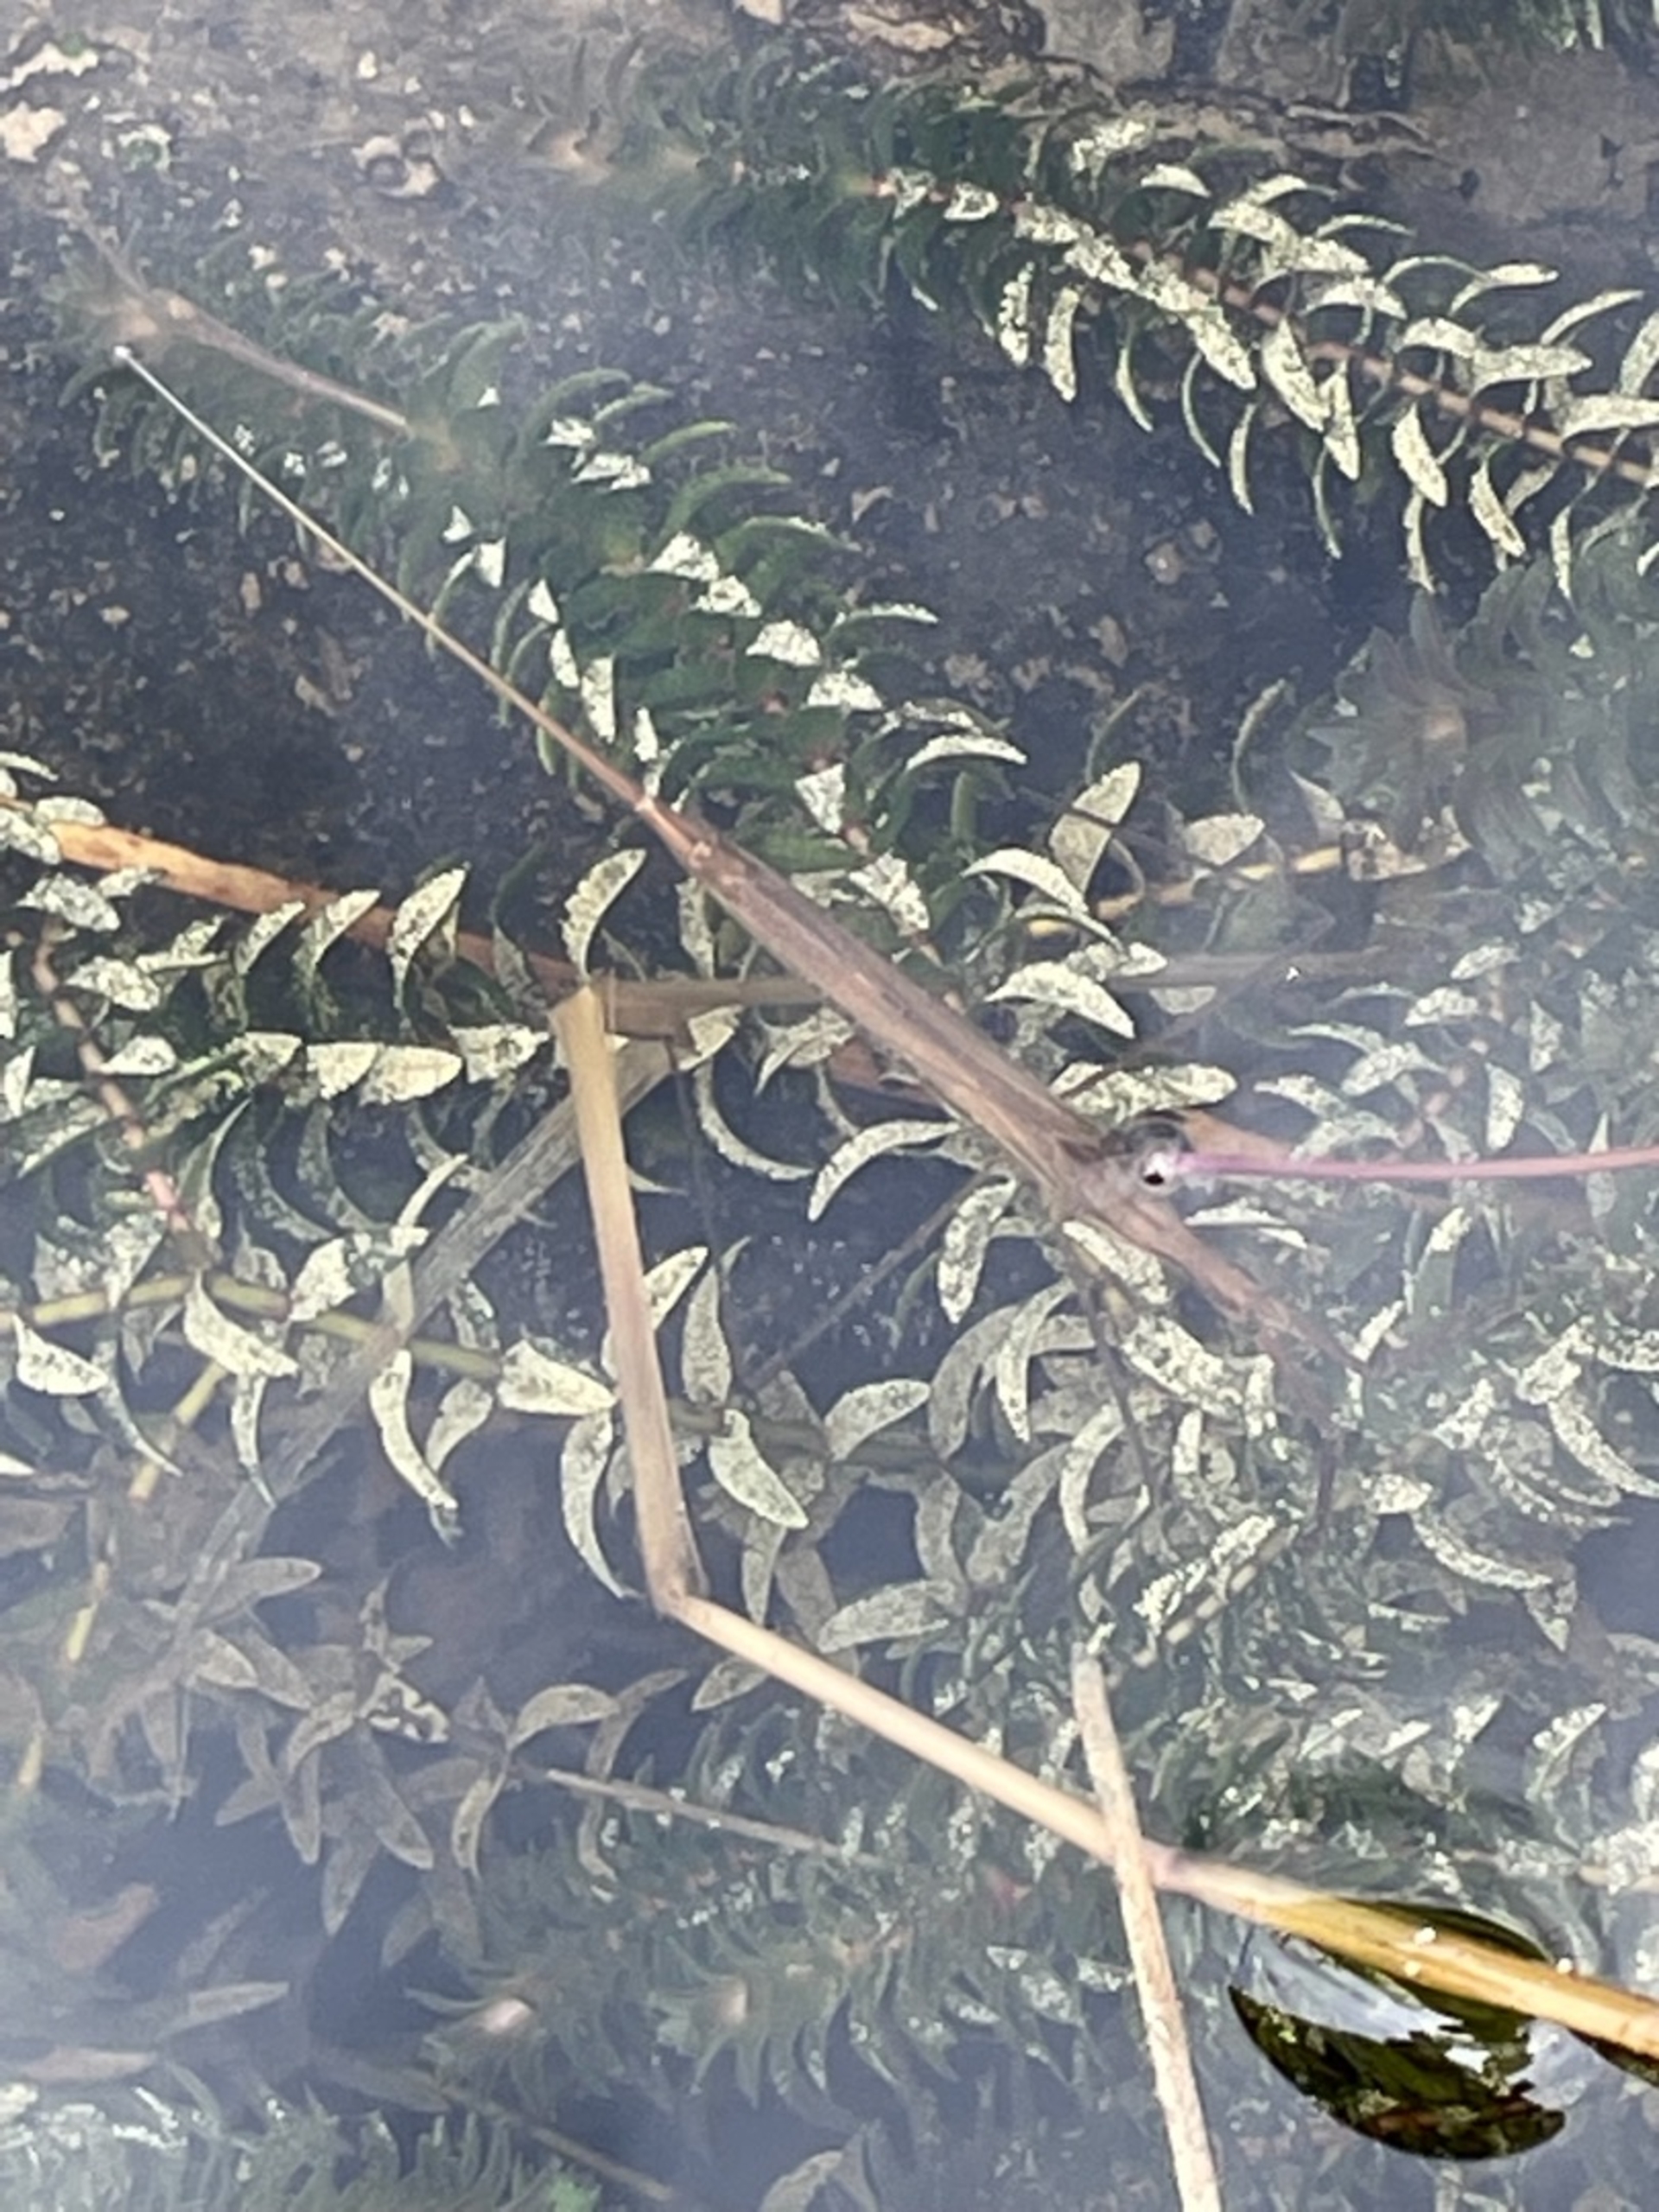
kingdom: Animalia
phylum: Arthropoda
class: Insecta
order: Hemiptera
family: Nepidae
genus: Ranatra
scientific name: Ranatra linearis
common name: Stavtæge
